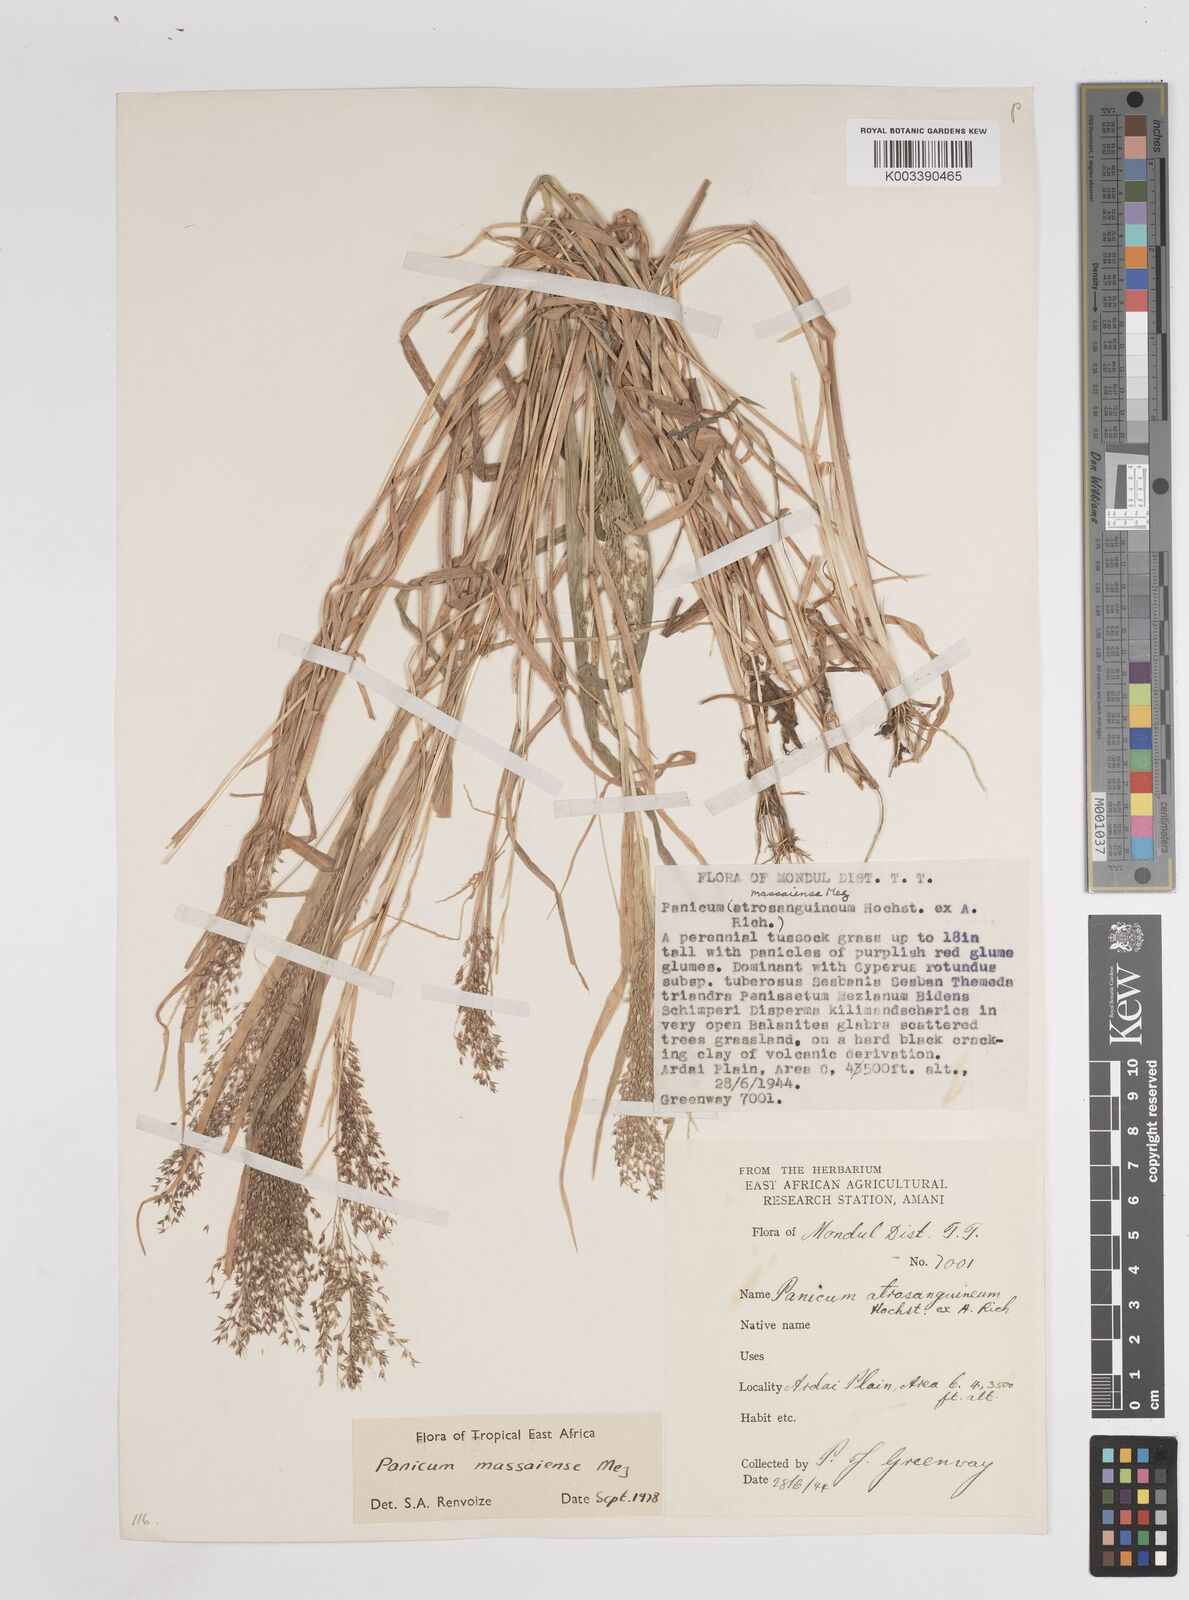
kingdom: Plantae
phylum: Tracheophyta
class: Liliopsida
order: Poales
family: Poaceae
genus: Panicum
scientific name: Panicum massaiense
